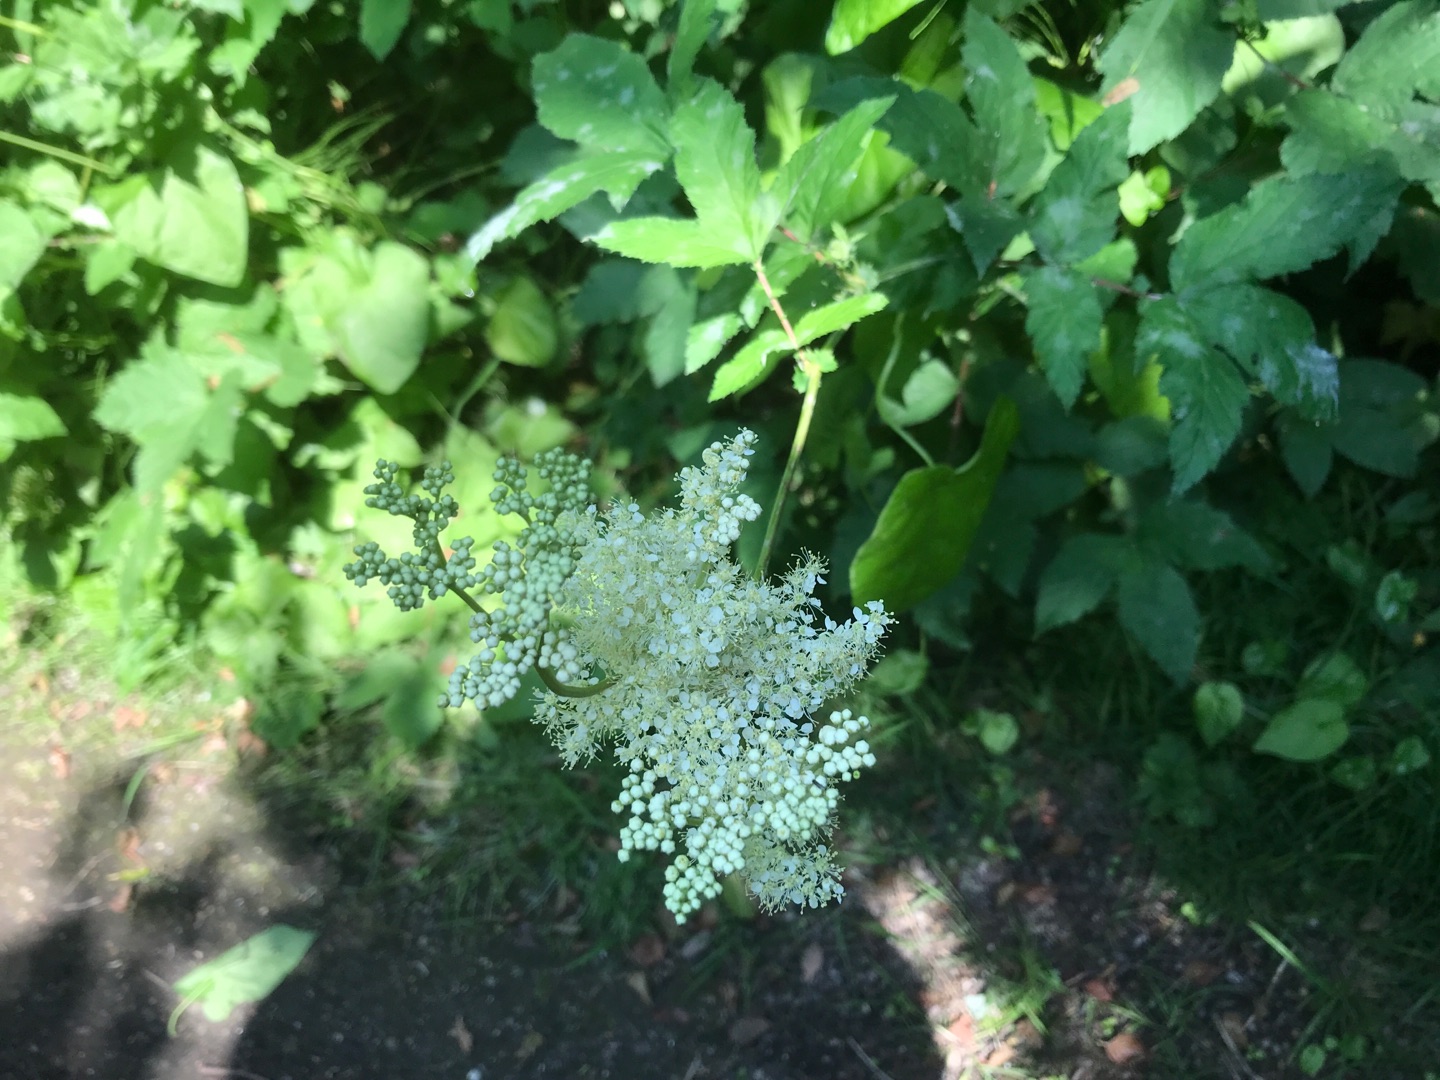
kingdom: Plantae
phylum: Tracheophyta
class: Magnoliopsida
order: Rosales
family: Rosaceae
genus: Filipendula
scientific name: Filipendula ulmaria
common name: Almindelig mjødurt
